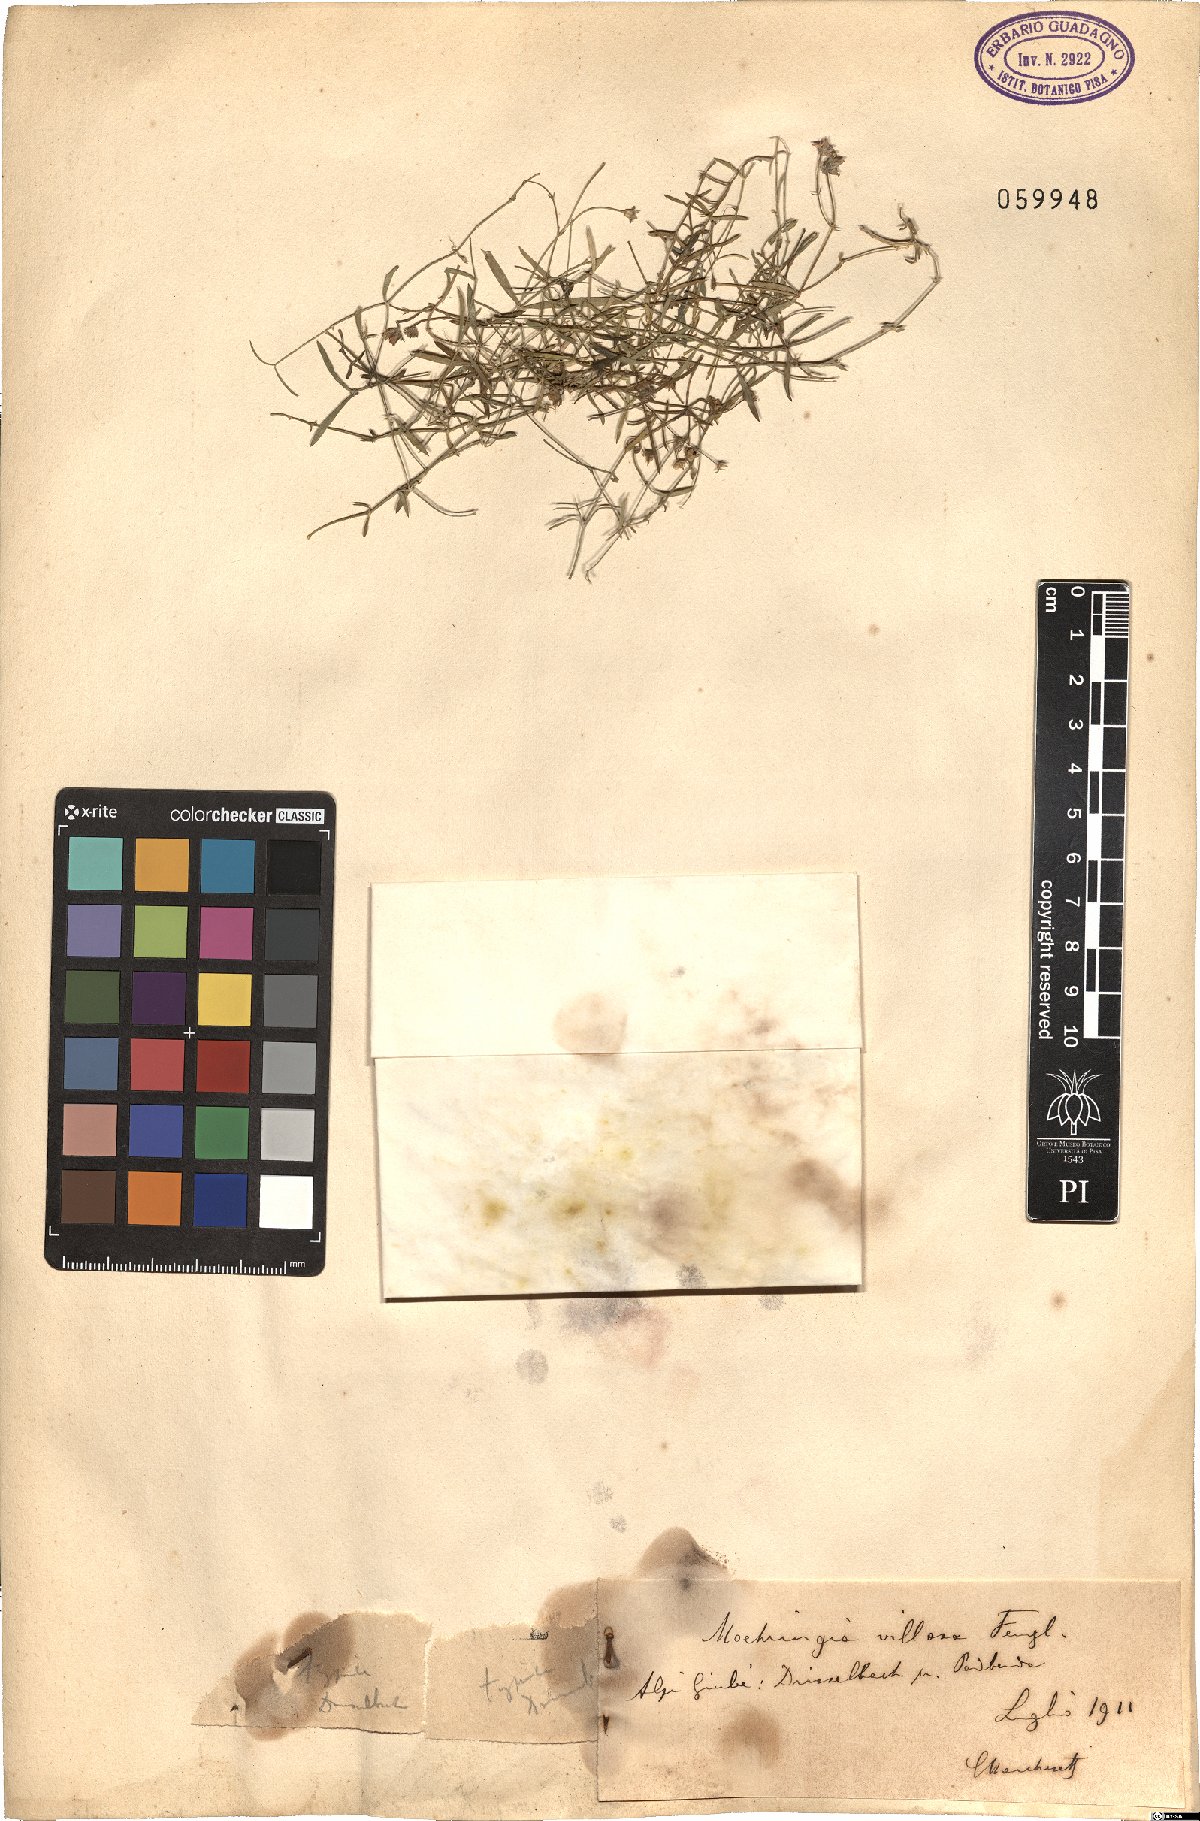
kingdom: Plantae
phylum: Tracheophyta
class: Magnoliopsida
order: Caryophyllales
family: Caryophyllaceae
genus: Moehringia
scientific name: Moehringia villosa
